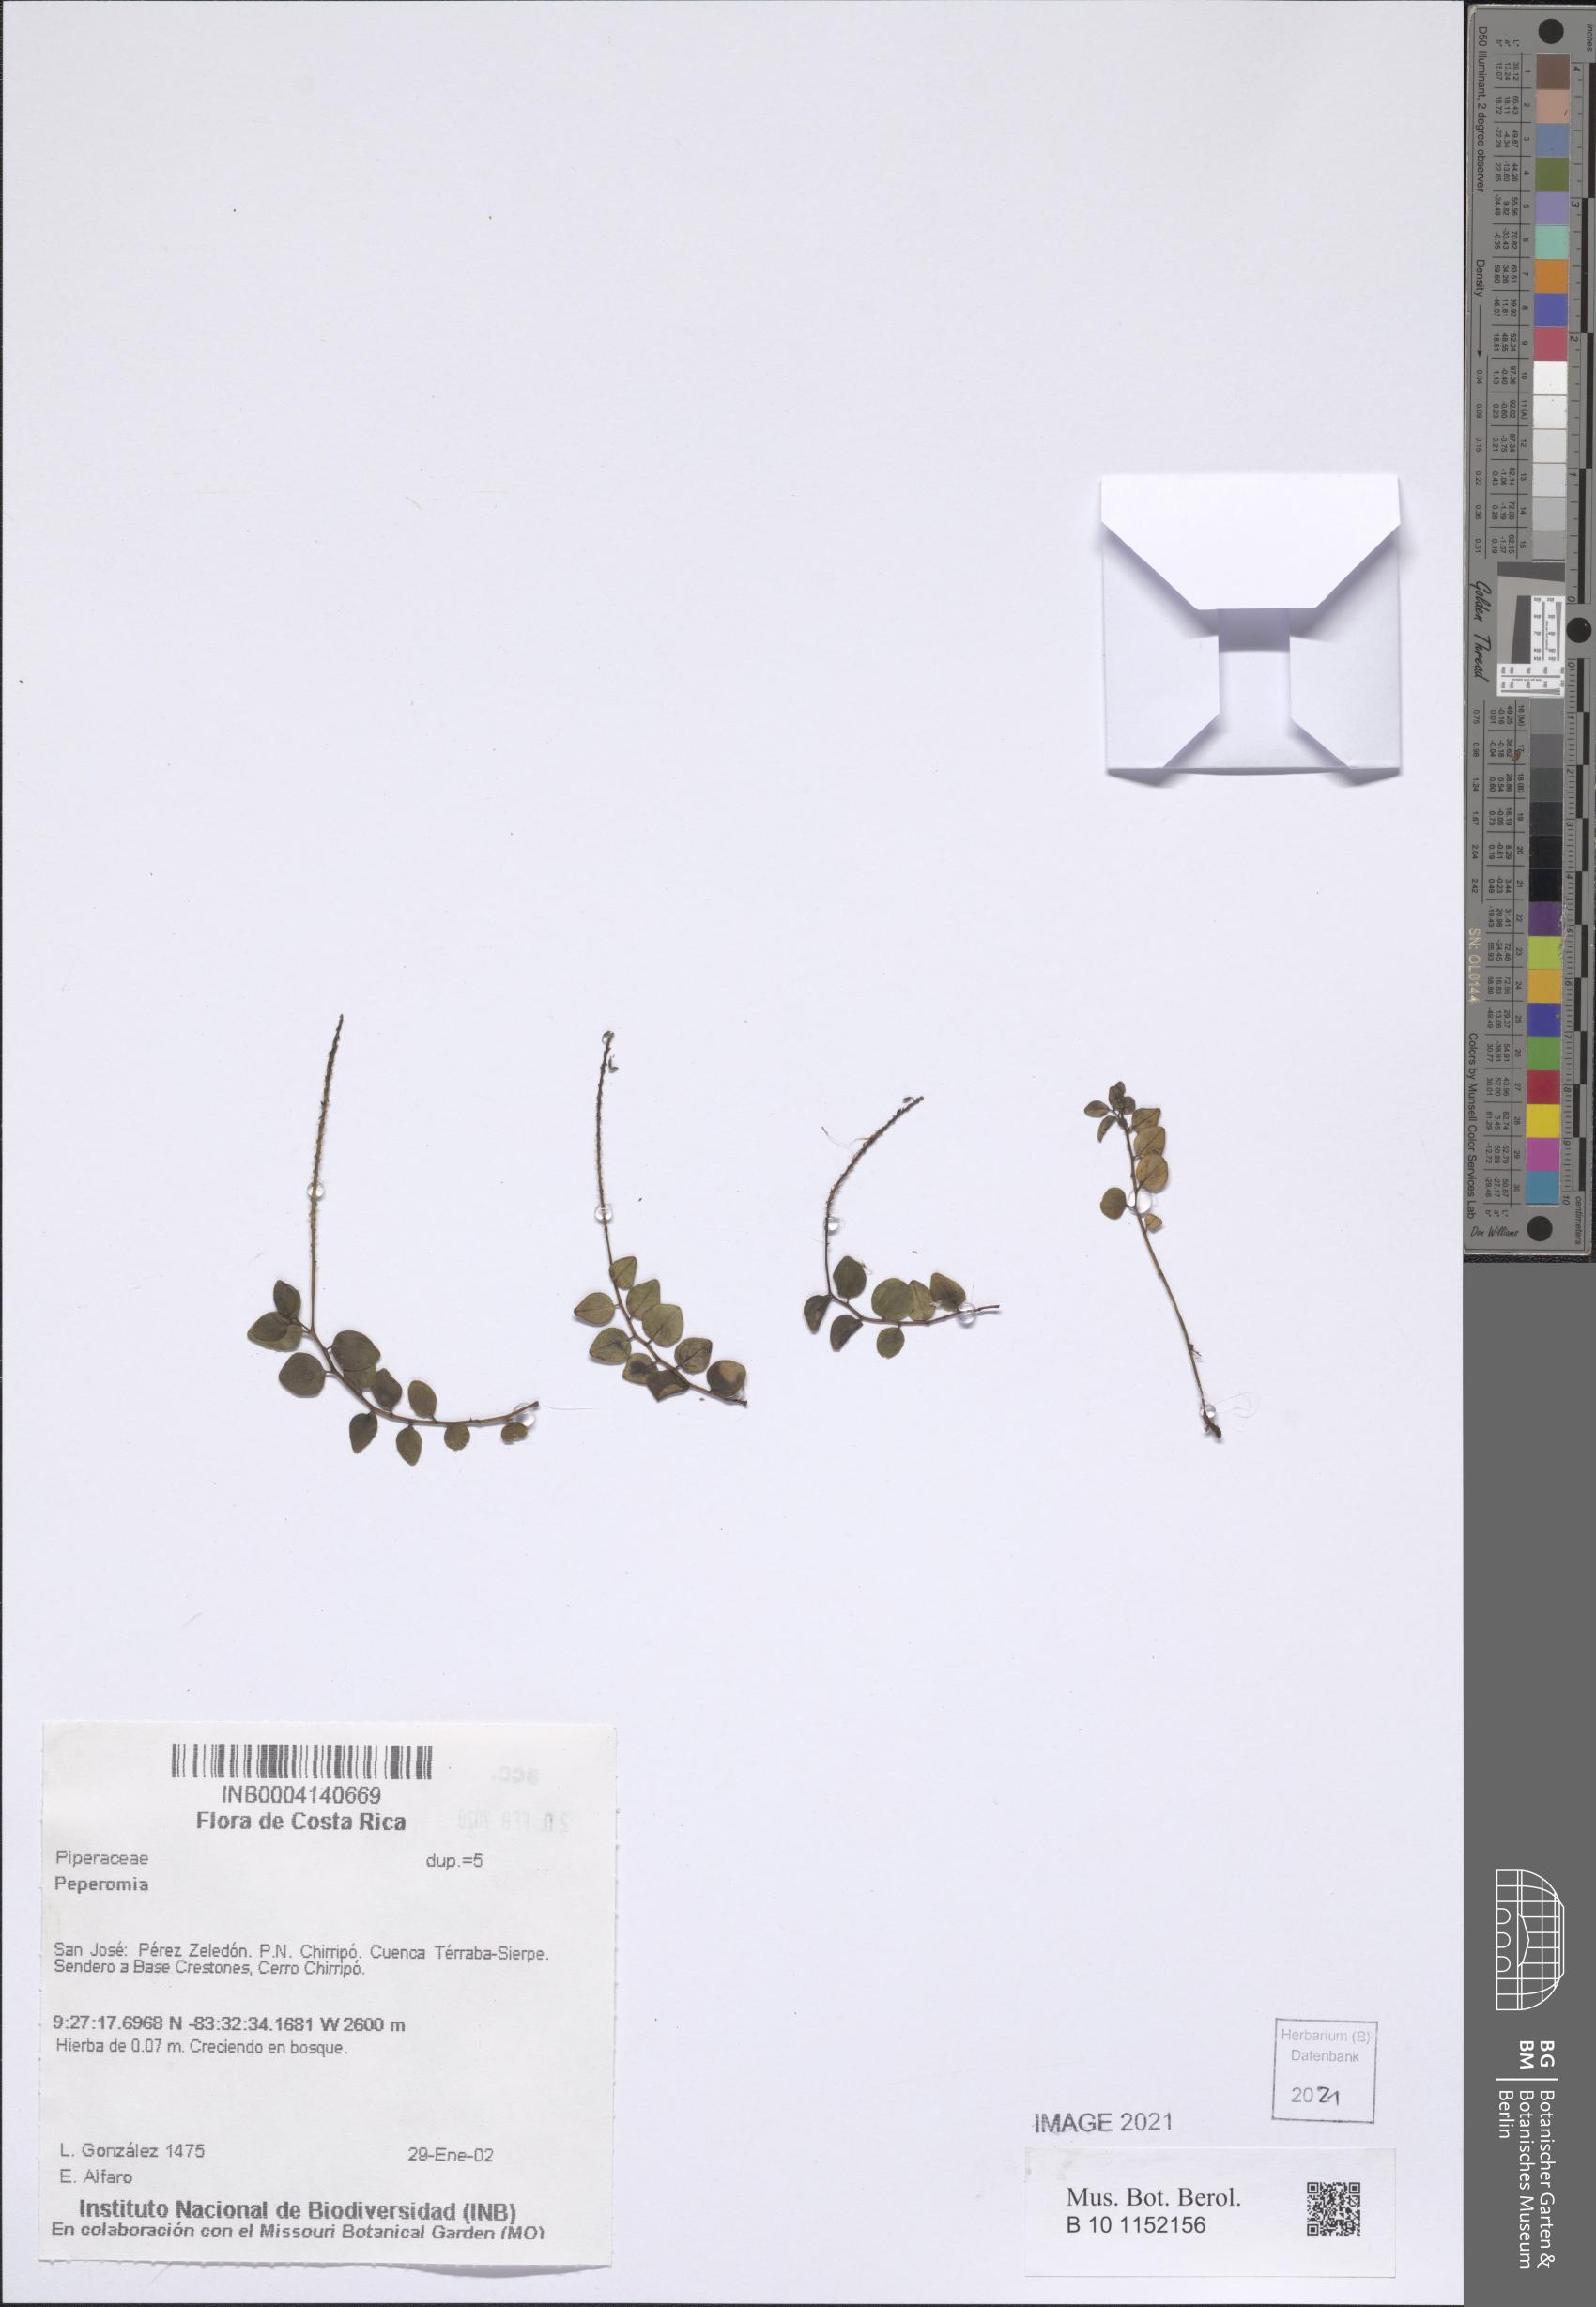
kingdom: Plantae
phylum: Tracheophyta
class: Magnoliopsida
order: Piperales
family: Piperaceae
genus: Peperomia
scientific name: Peperomia
